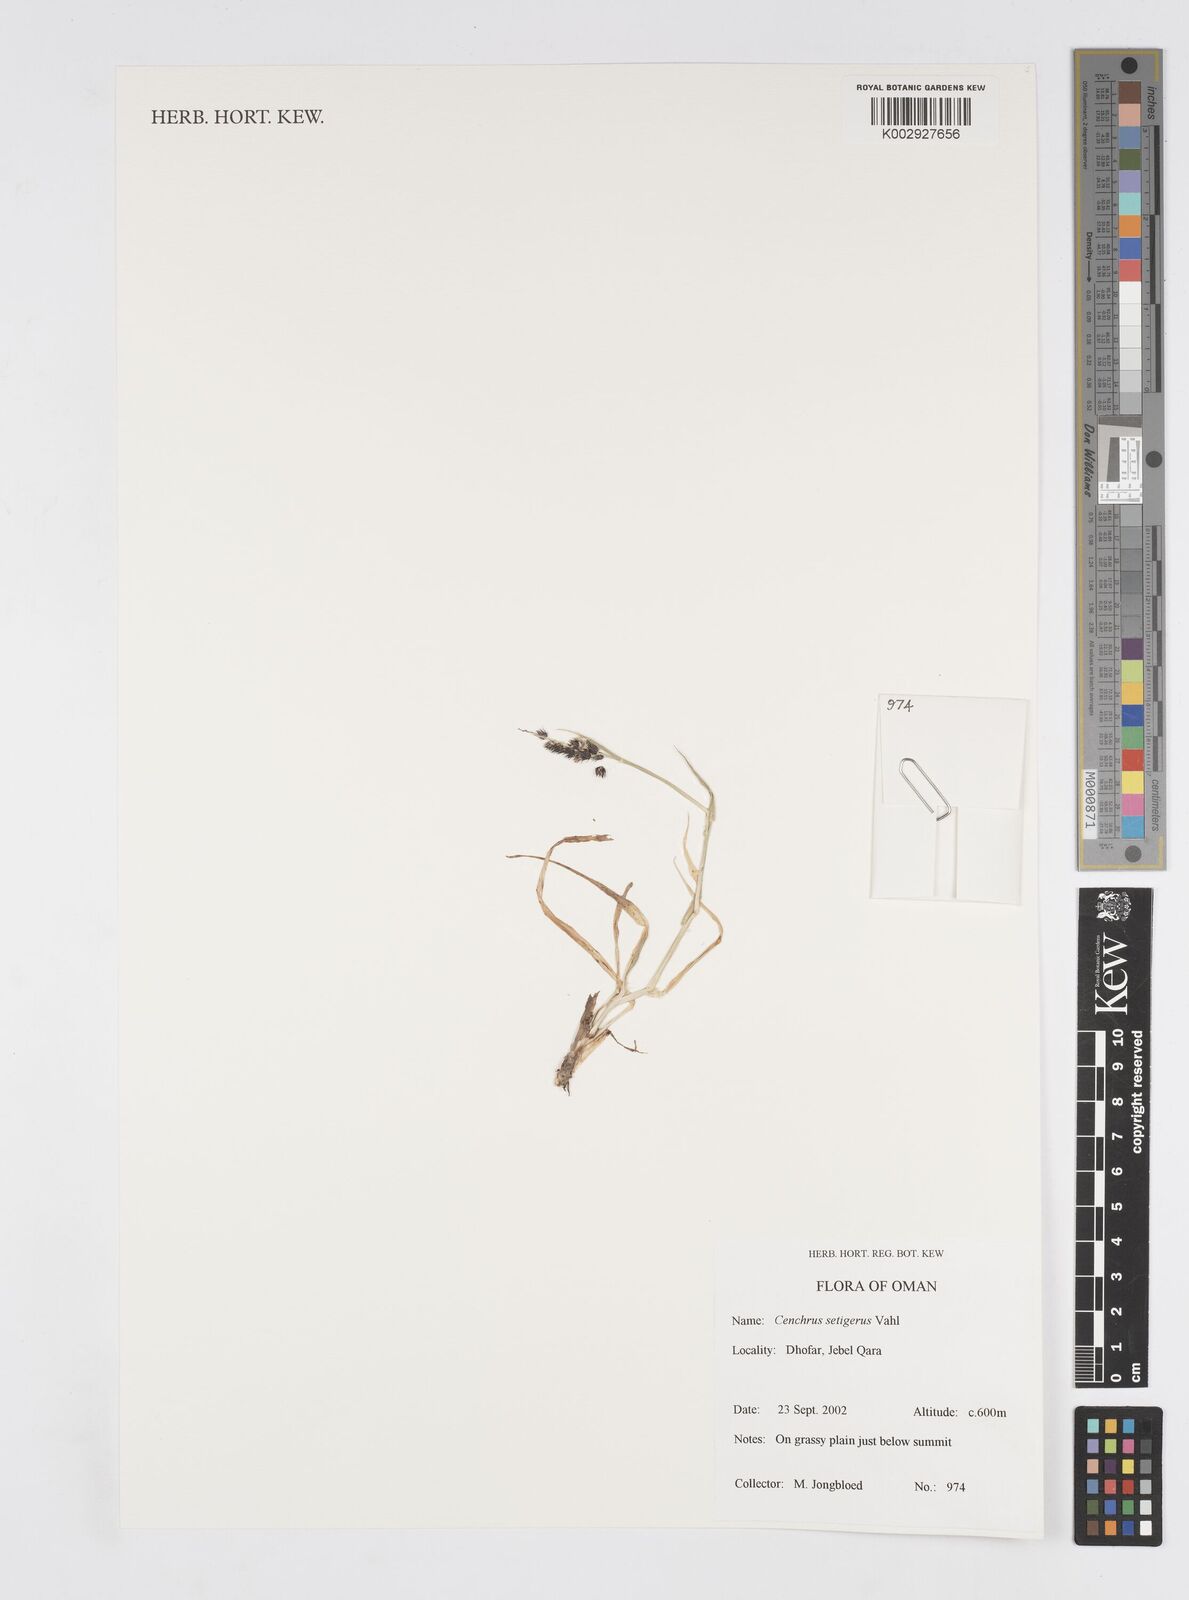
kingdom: Plantae
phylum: Tracheophyta
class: Liliopsida
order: Poales
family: Poaceae
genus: Cenchrus
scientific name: Cenchrus setigerus
